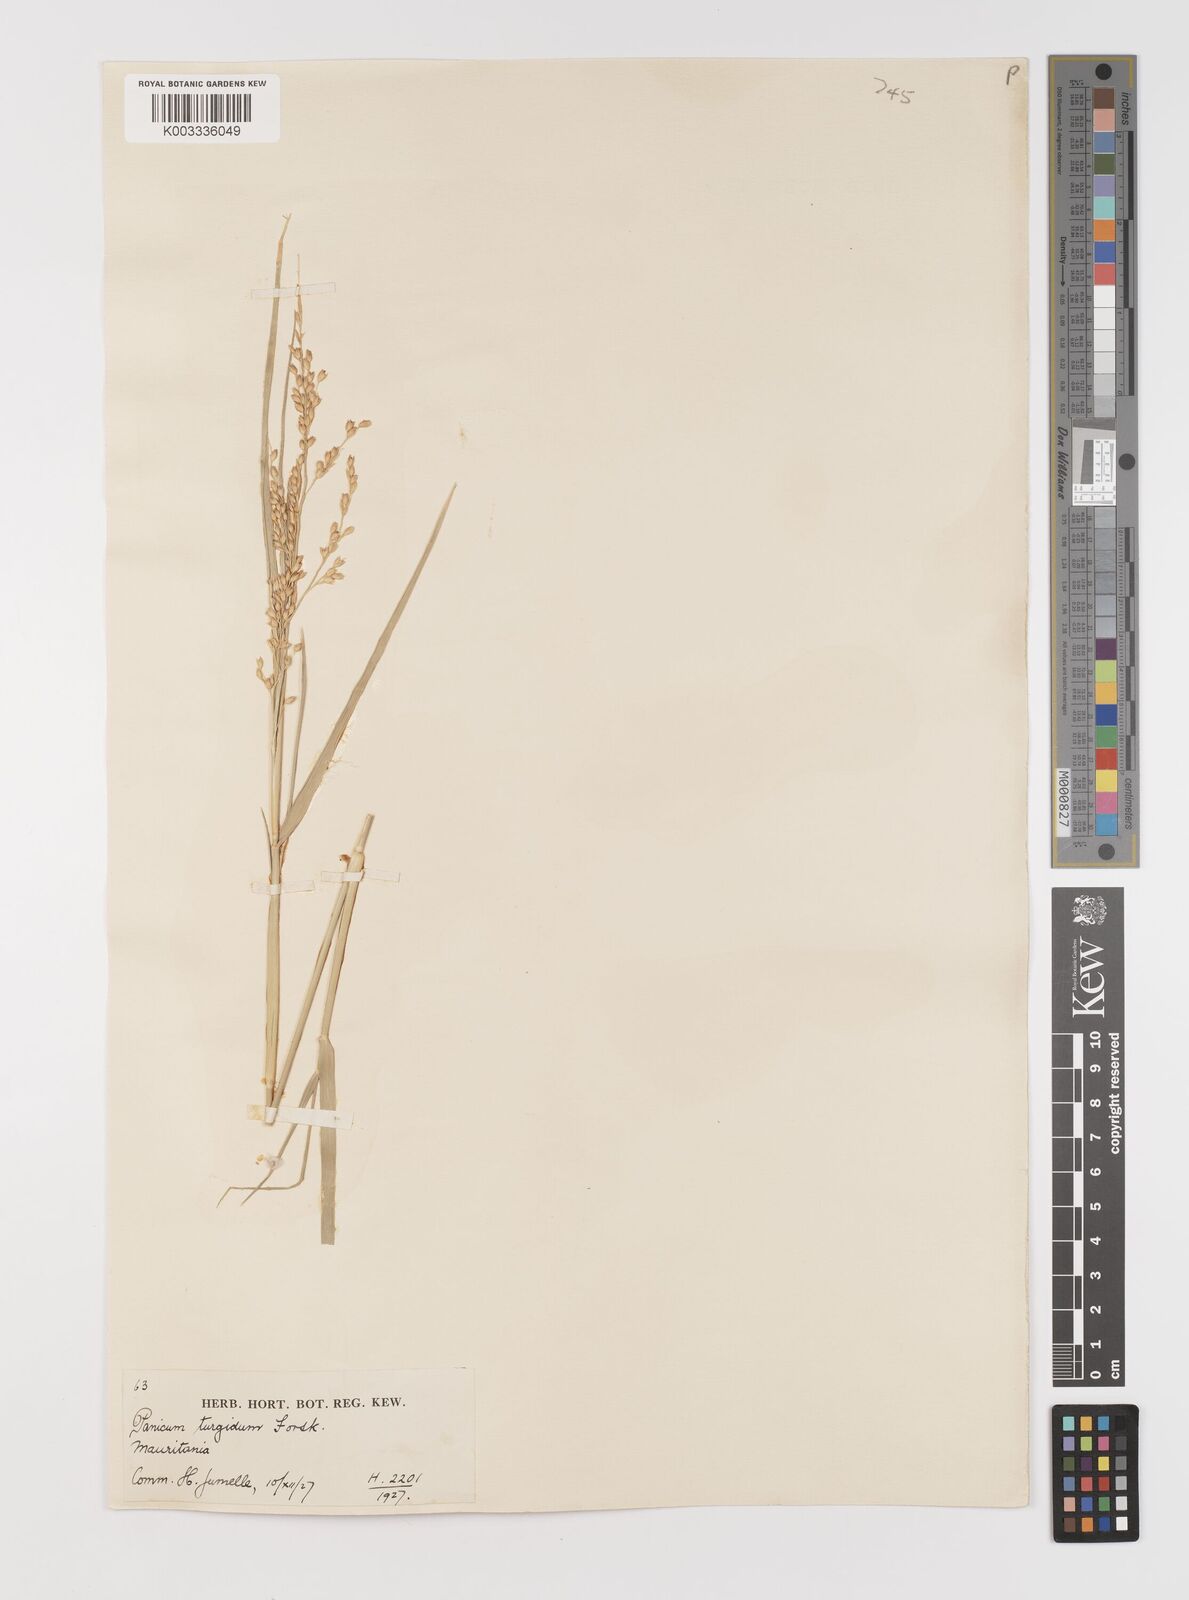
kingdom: Plantae
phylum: Tracheophyta
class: Liliopsida
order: Poales
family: Poaceae
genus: Panicum
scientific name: Panicum turgidum
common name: Desert grass
